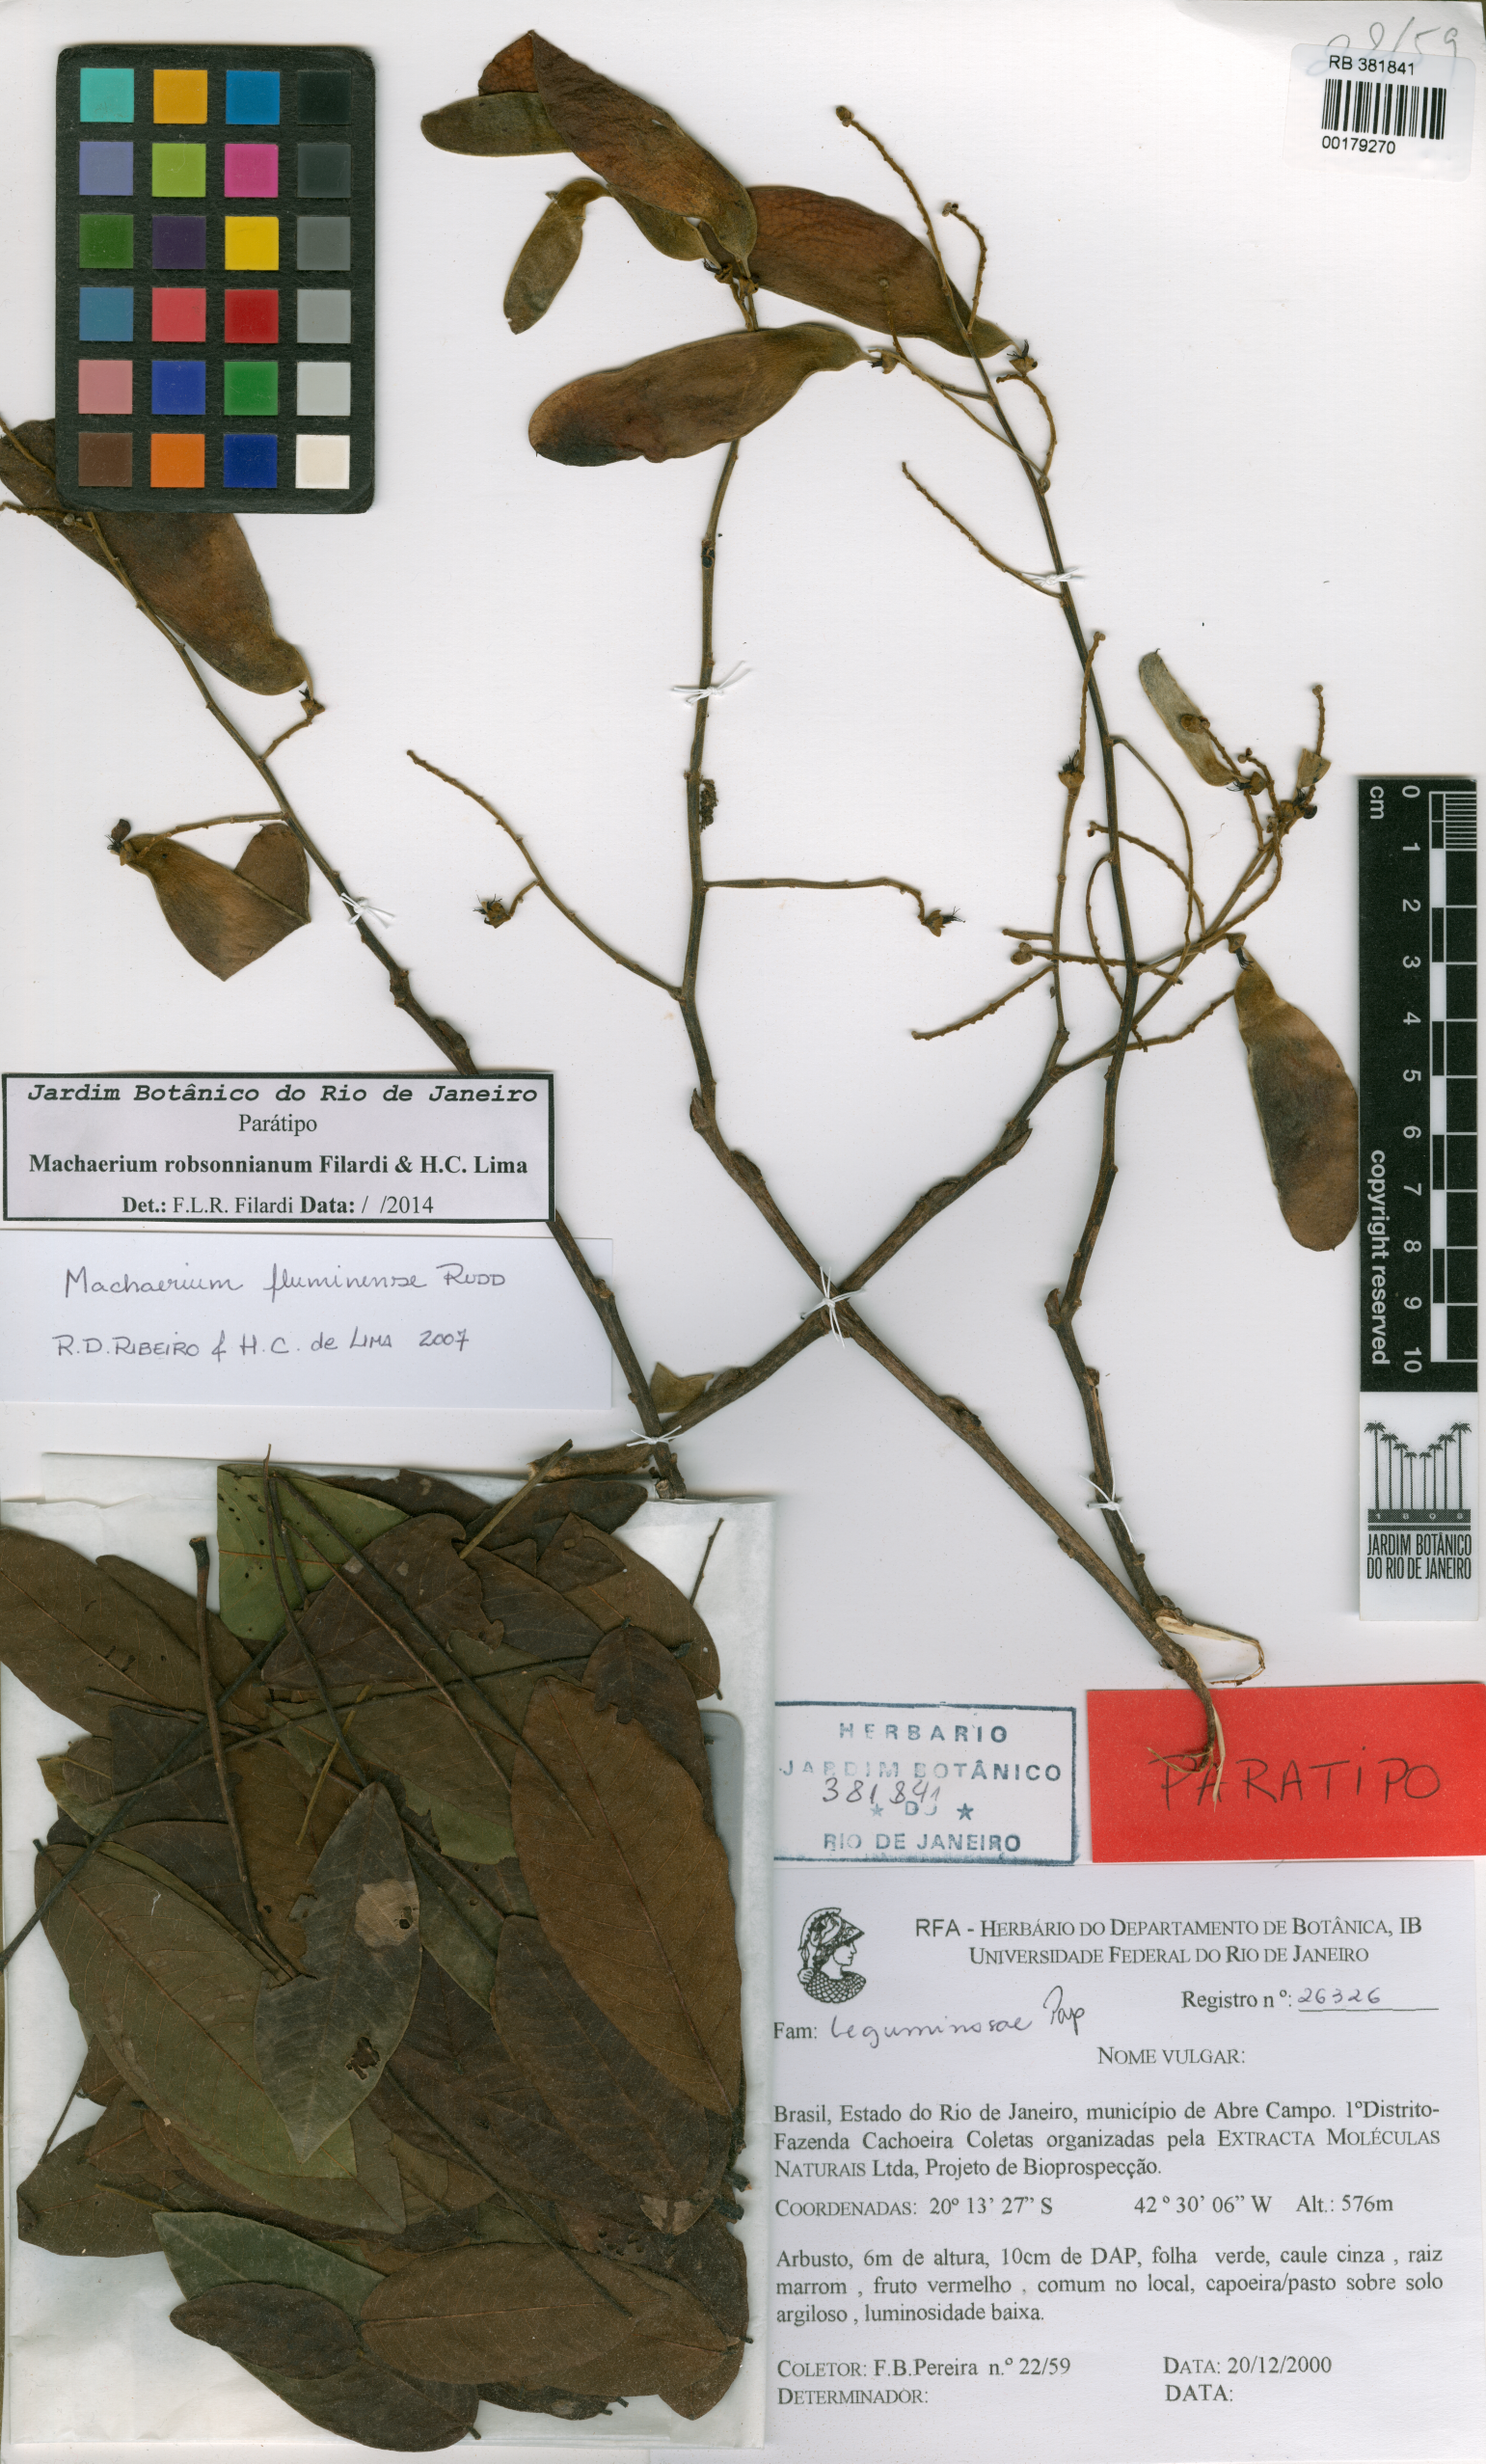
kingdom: Plantae
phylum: Tracheophyta
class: Magnoliopsida
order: Fabales
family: Fabaceae
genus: Machaerium
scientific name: Machaerium robsonianum
